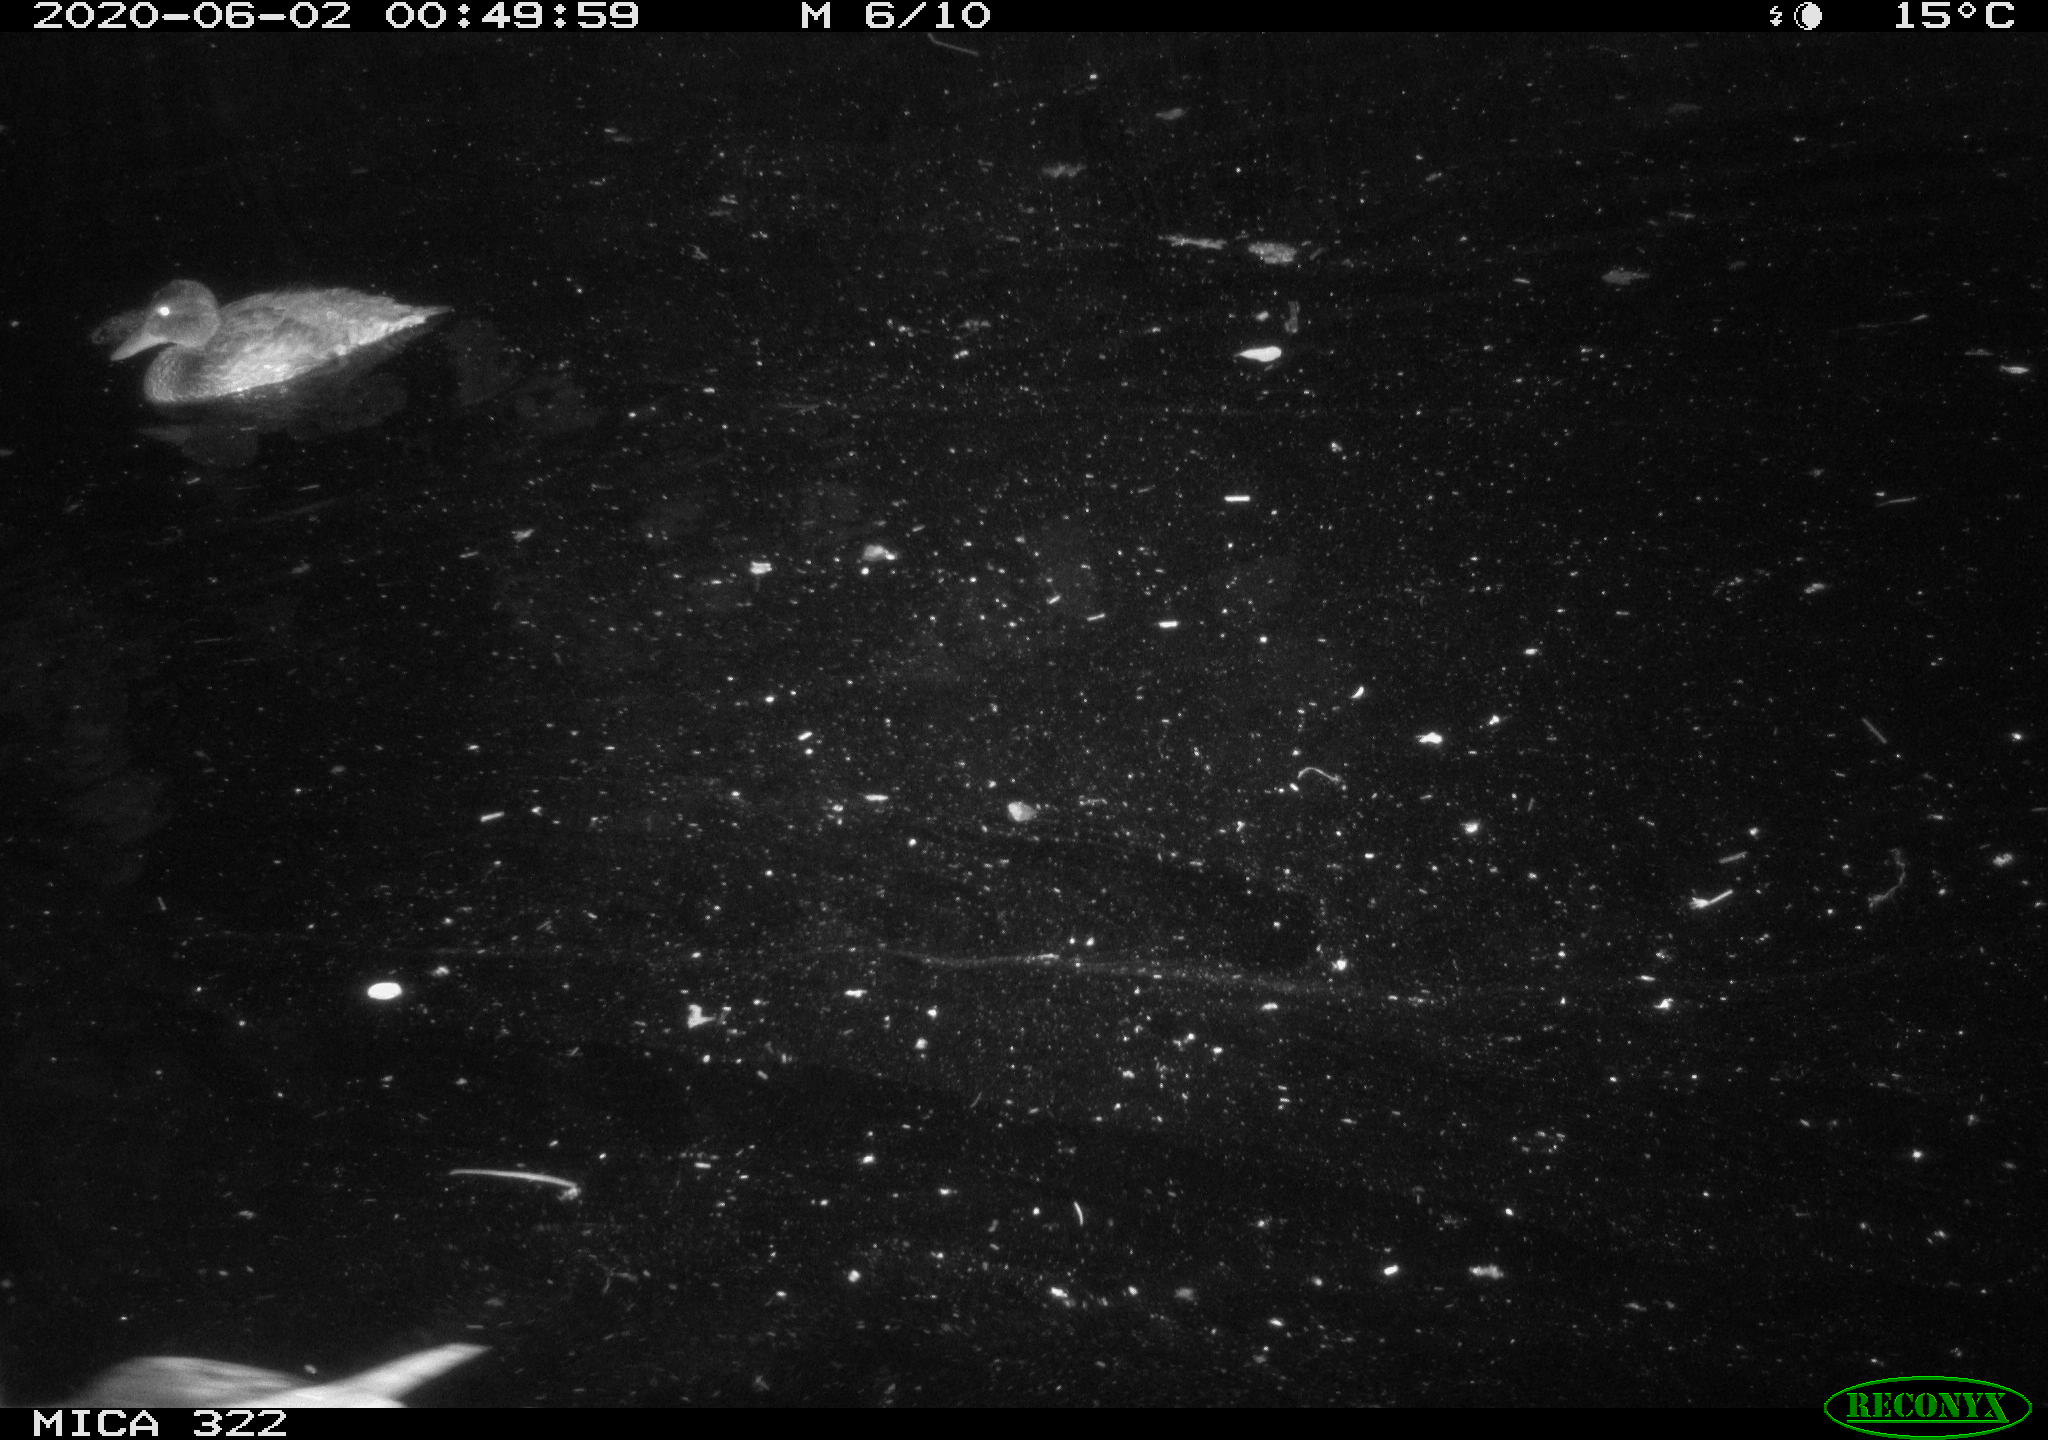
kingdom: Animalia
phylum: Chordata
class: Aves
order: Anseriformes
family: Anatidae
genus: Anas
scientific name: Anas platyrhynchos
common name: Mallard
